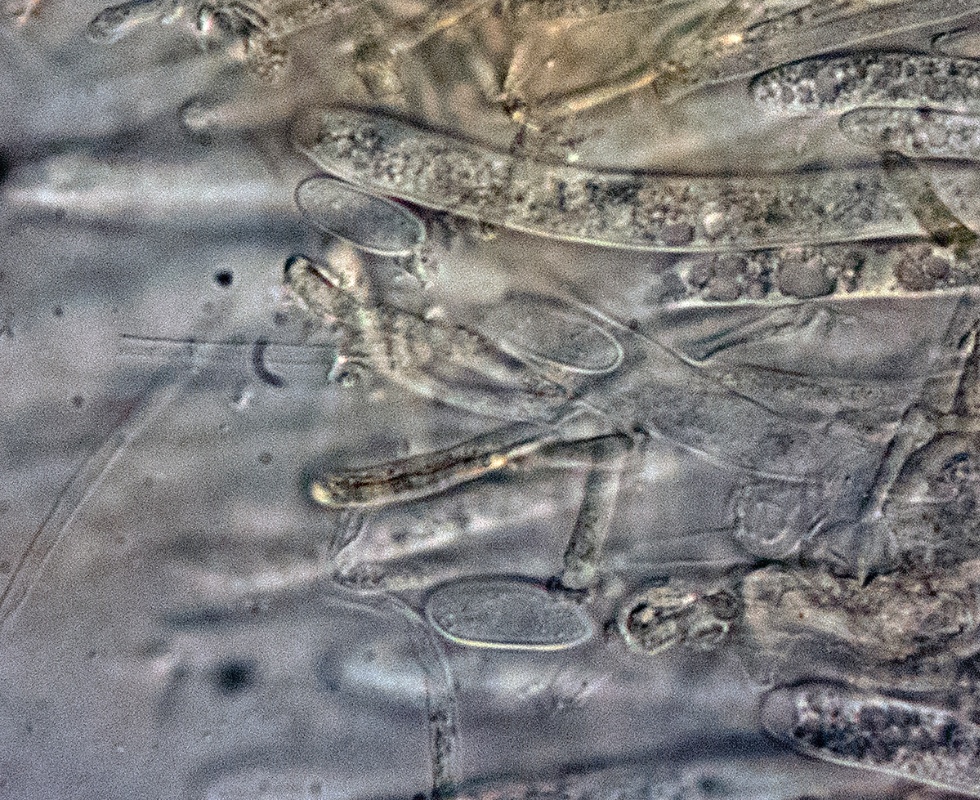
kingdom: Fungi
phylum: Ascomycota
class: Leotiomycetes
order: Helotiales
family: Tricladiaceae
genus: Cudoniella
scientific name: Cudoniella junciseda
